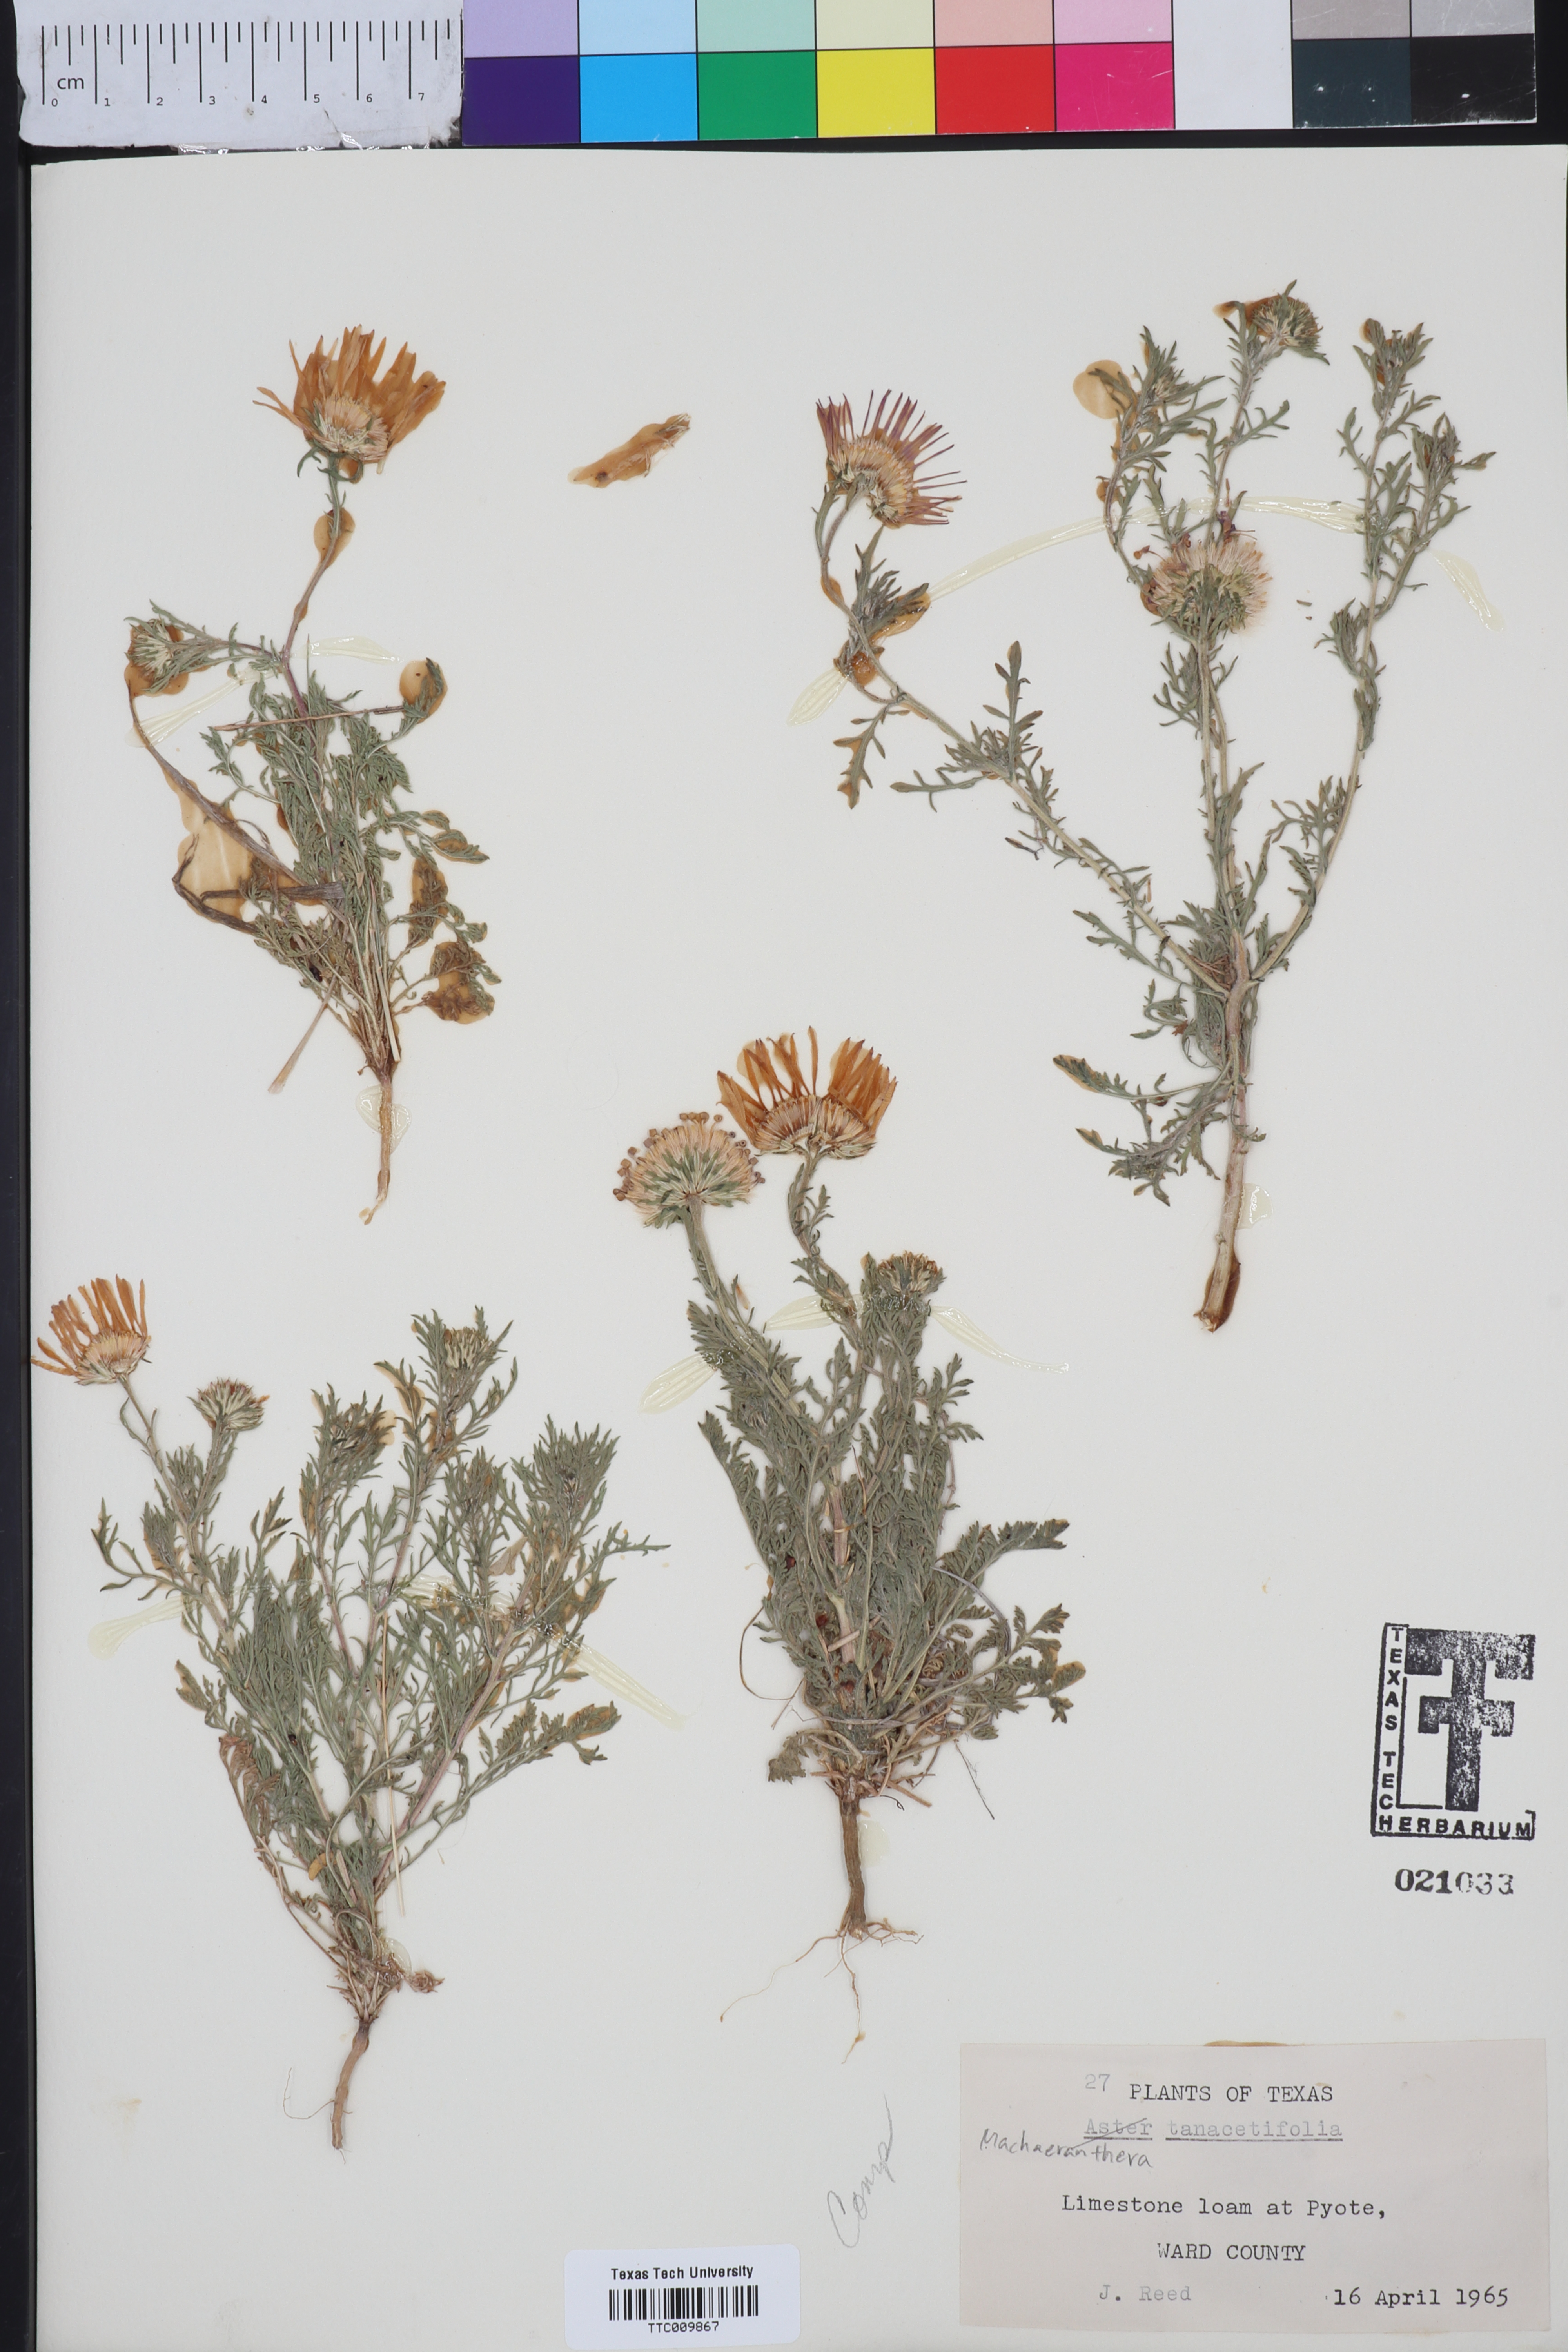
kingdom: Plantae
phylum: Tracheophyta
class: Magnoliopsida
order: Asterales
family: Asteraceae
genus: Machaeranthera
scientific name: Machaeranthera tanacetifolia
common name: Tansy-aster
